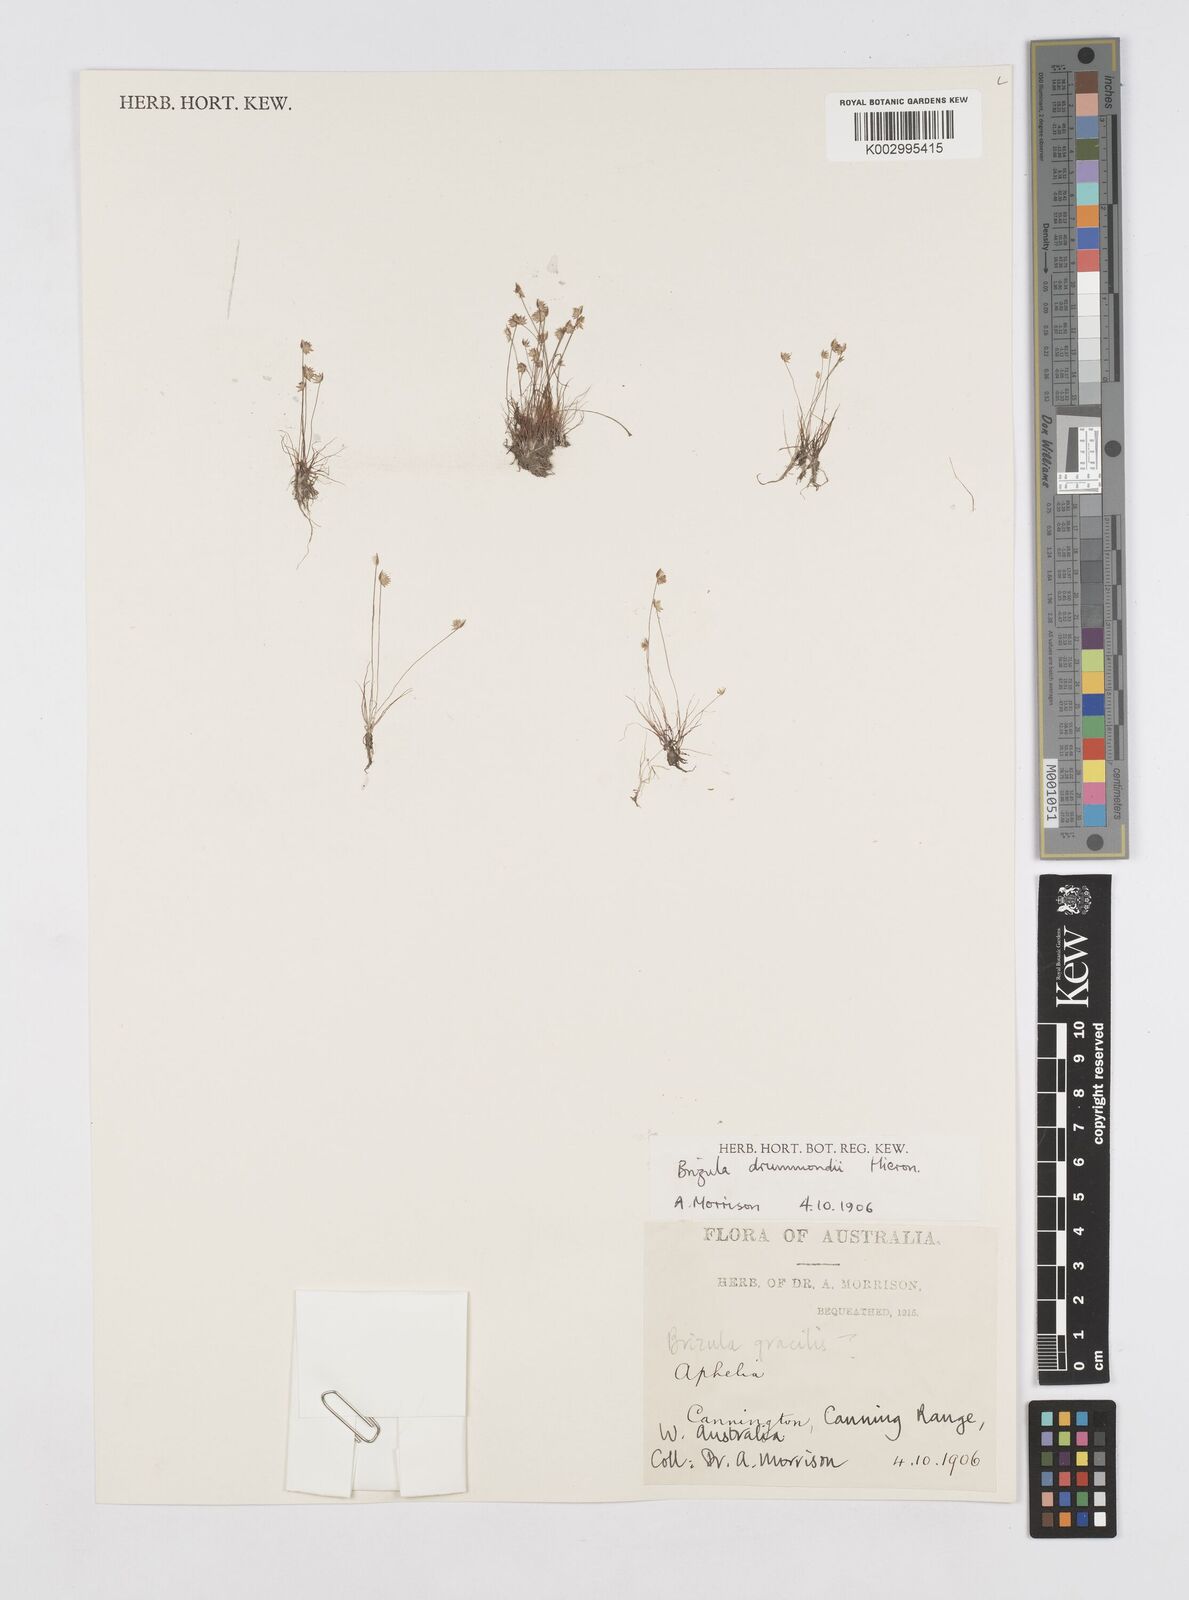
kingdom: Plantae
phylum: Tracheophyta
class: Liliopsida
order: Poales
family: Restionaceae
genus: Aphelia
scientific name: Aphelia drummondii
